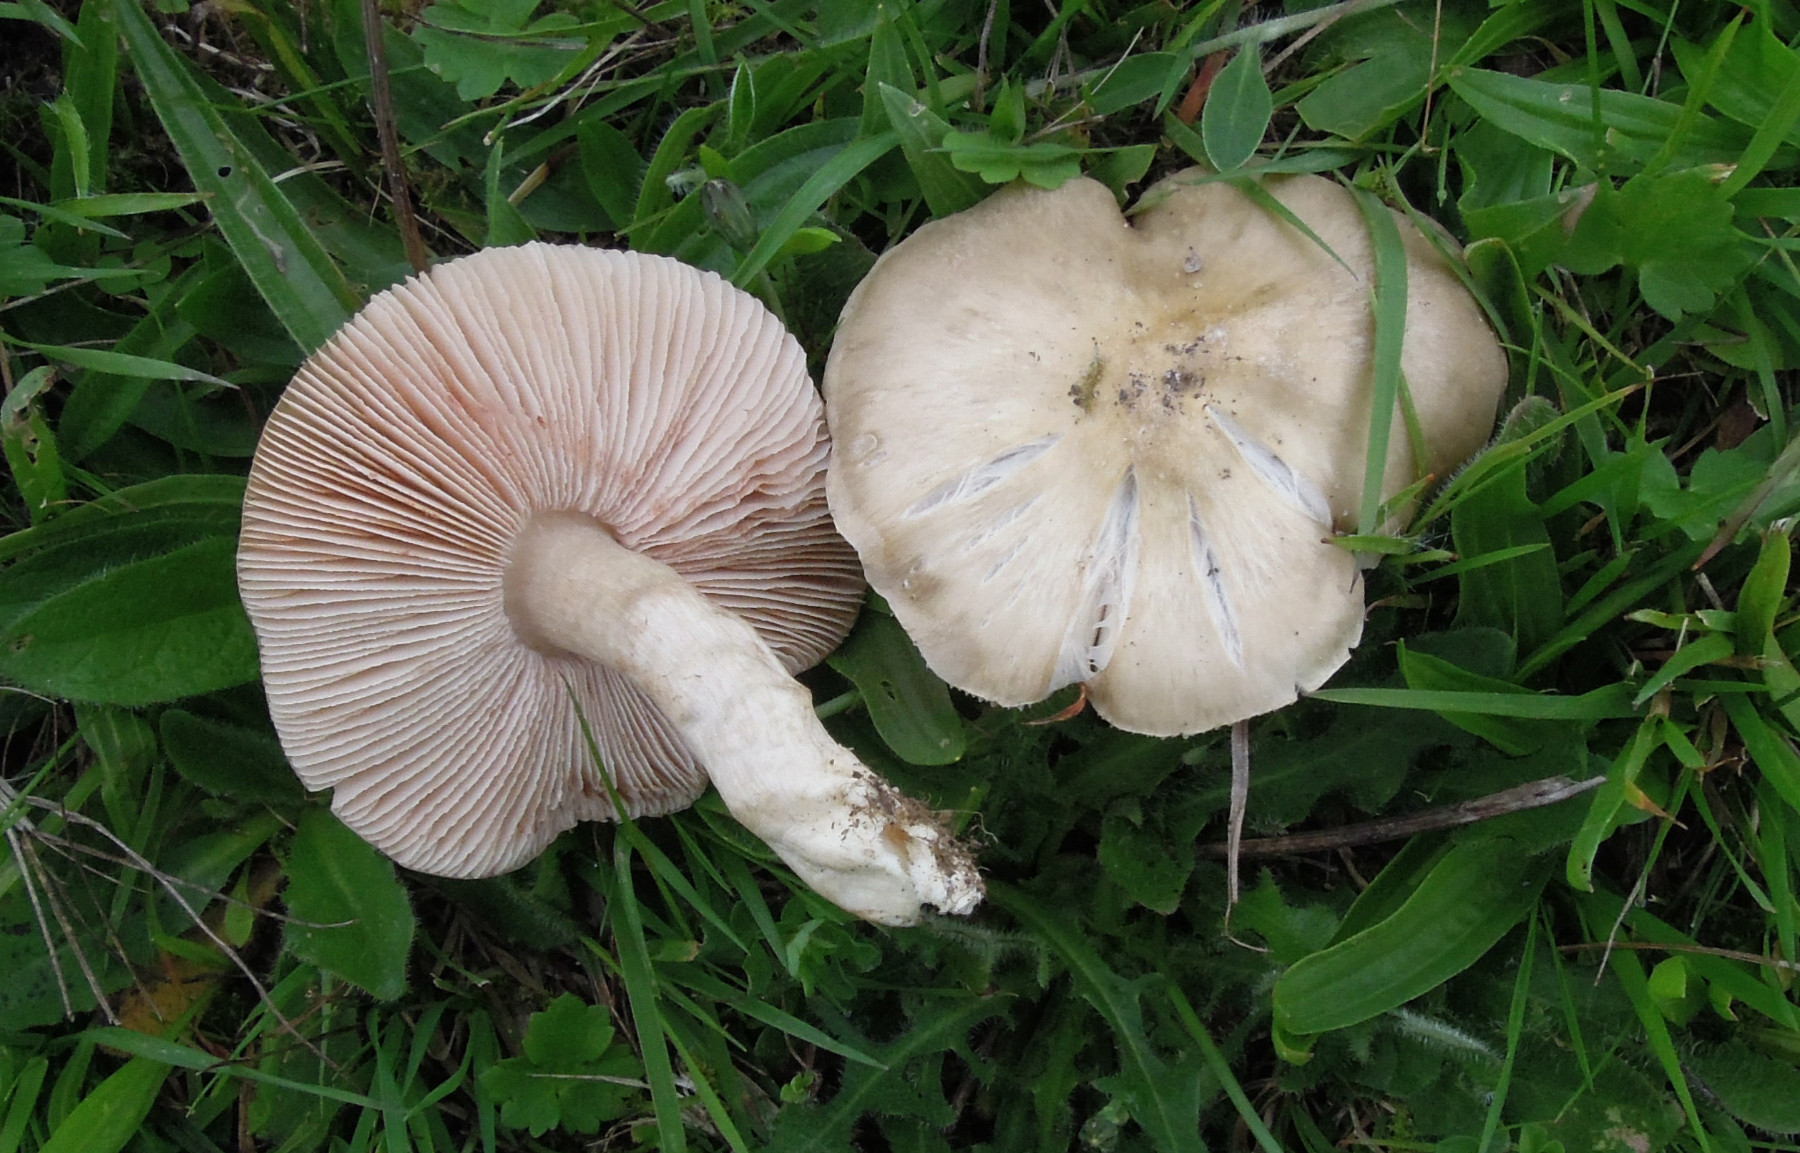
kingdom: Fungi
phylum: Basidiomycota
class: Agaricomycetes
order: Agaricales
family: Entolomataceae
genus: Entoloma
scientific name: Entoloma prunuloides
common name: mel-rødblad
